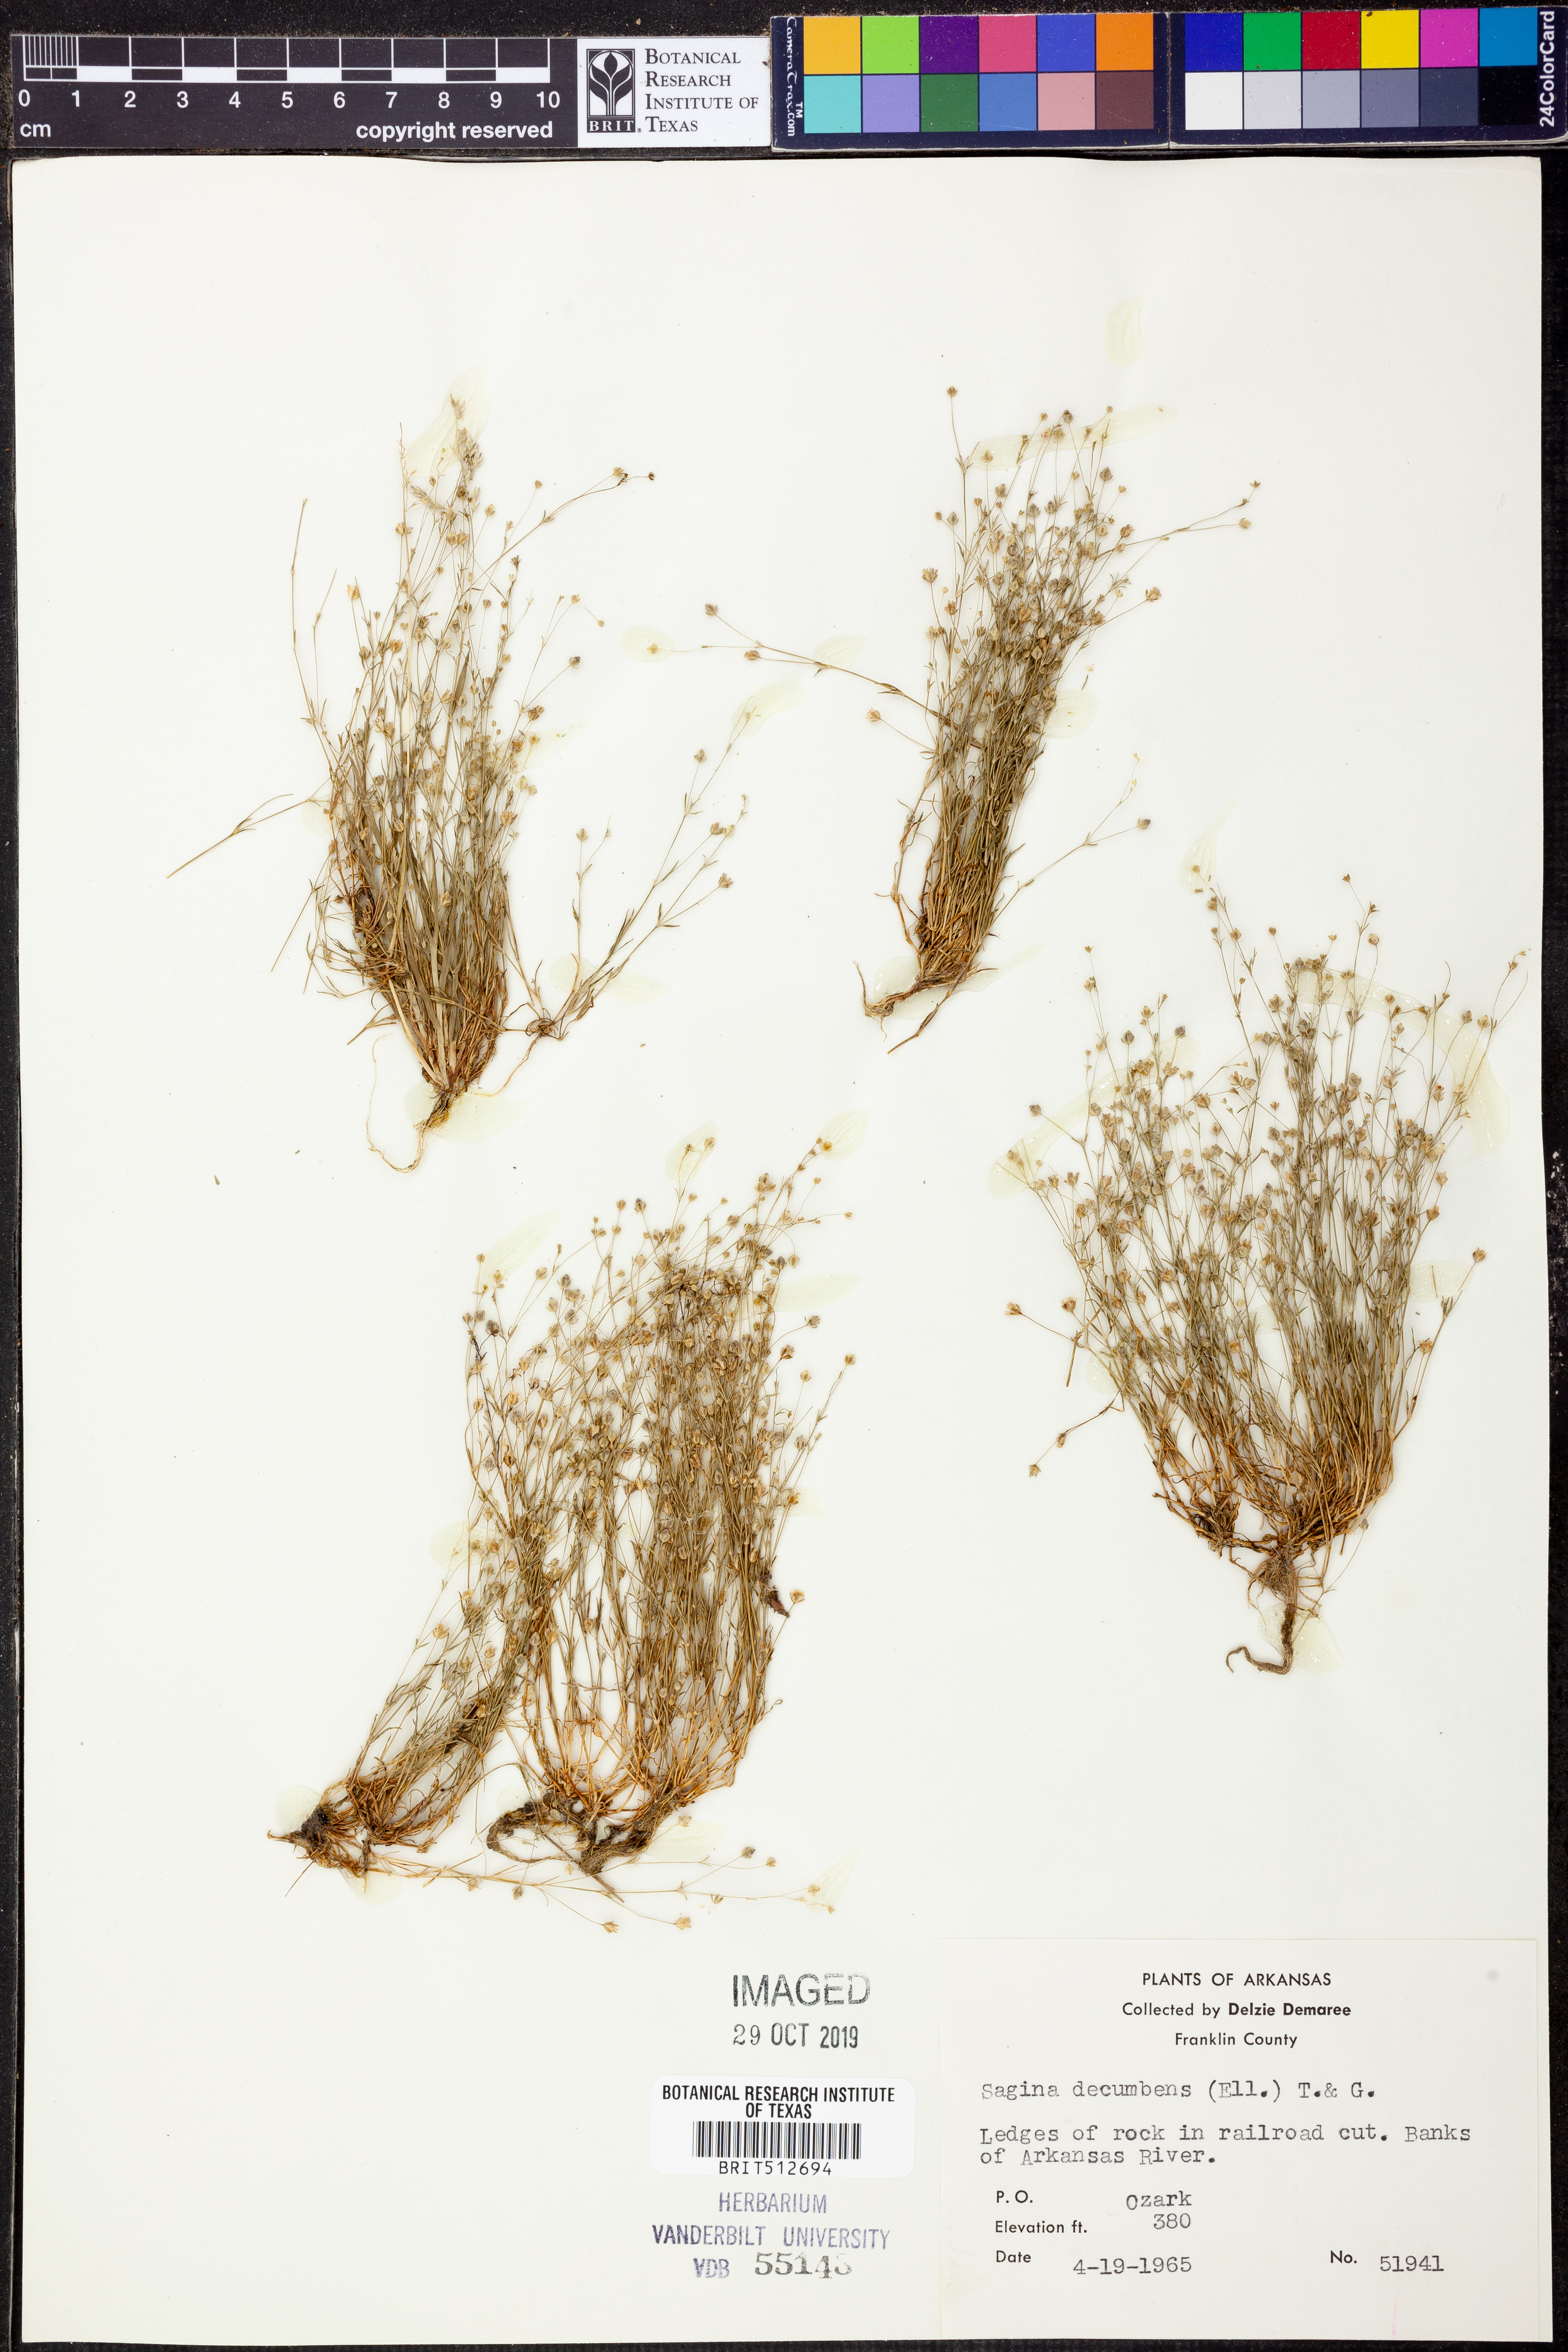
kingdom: Plantae
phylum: Tracheophyta
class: Magnoliopsida
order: Caryophyllales
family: Caryophyllaceae
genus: Sagina
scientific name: Sagina decumbens
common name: Decumbent pearlwort
